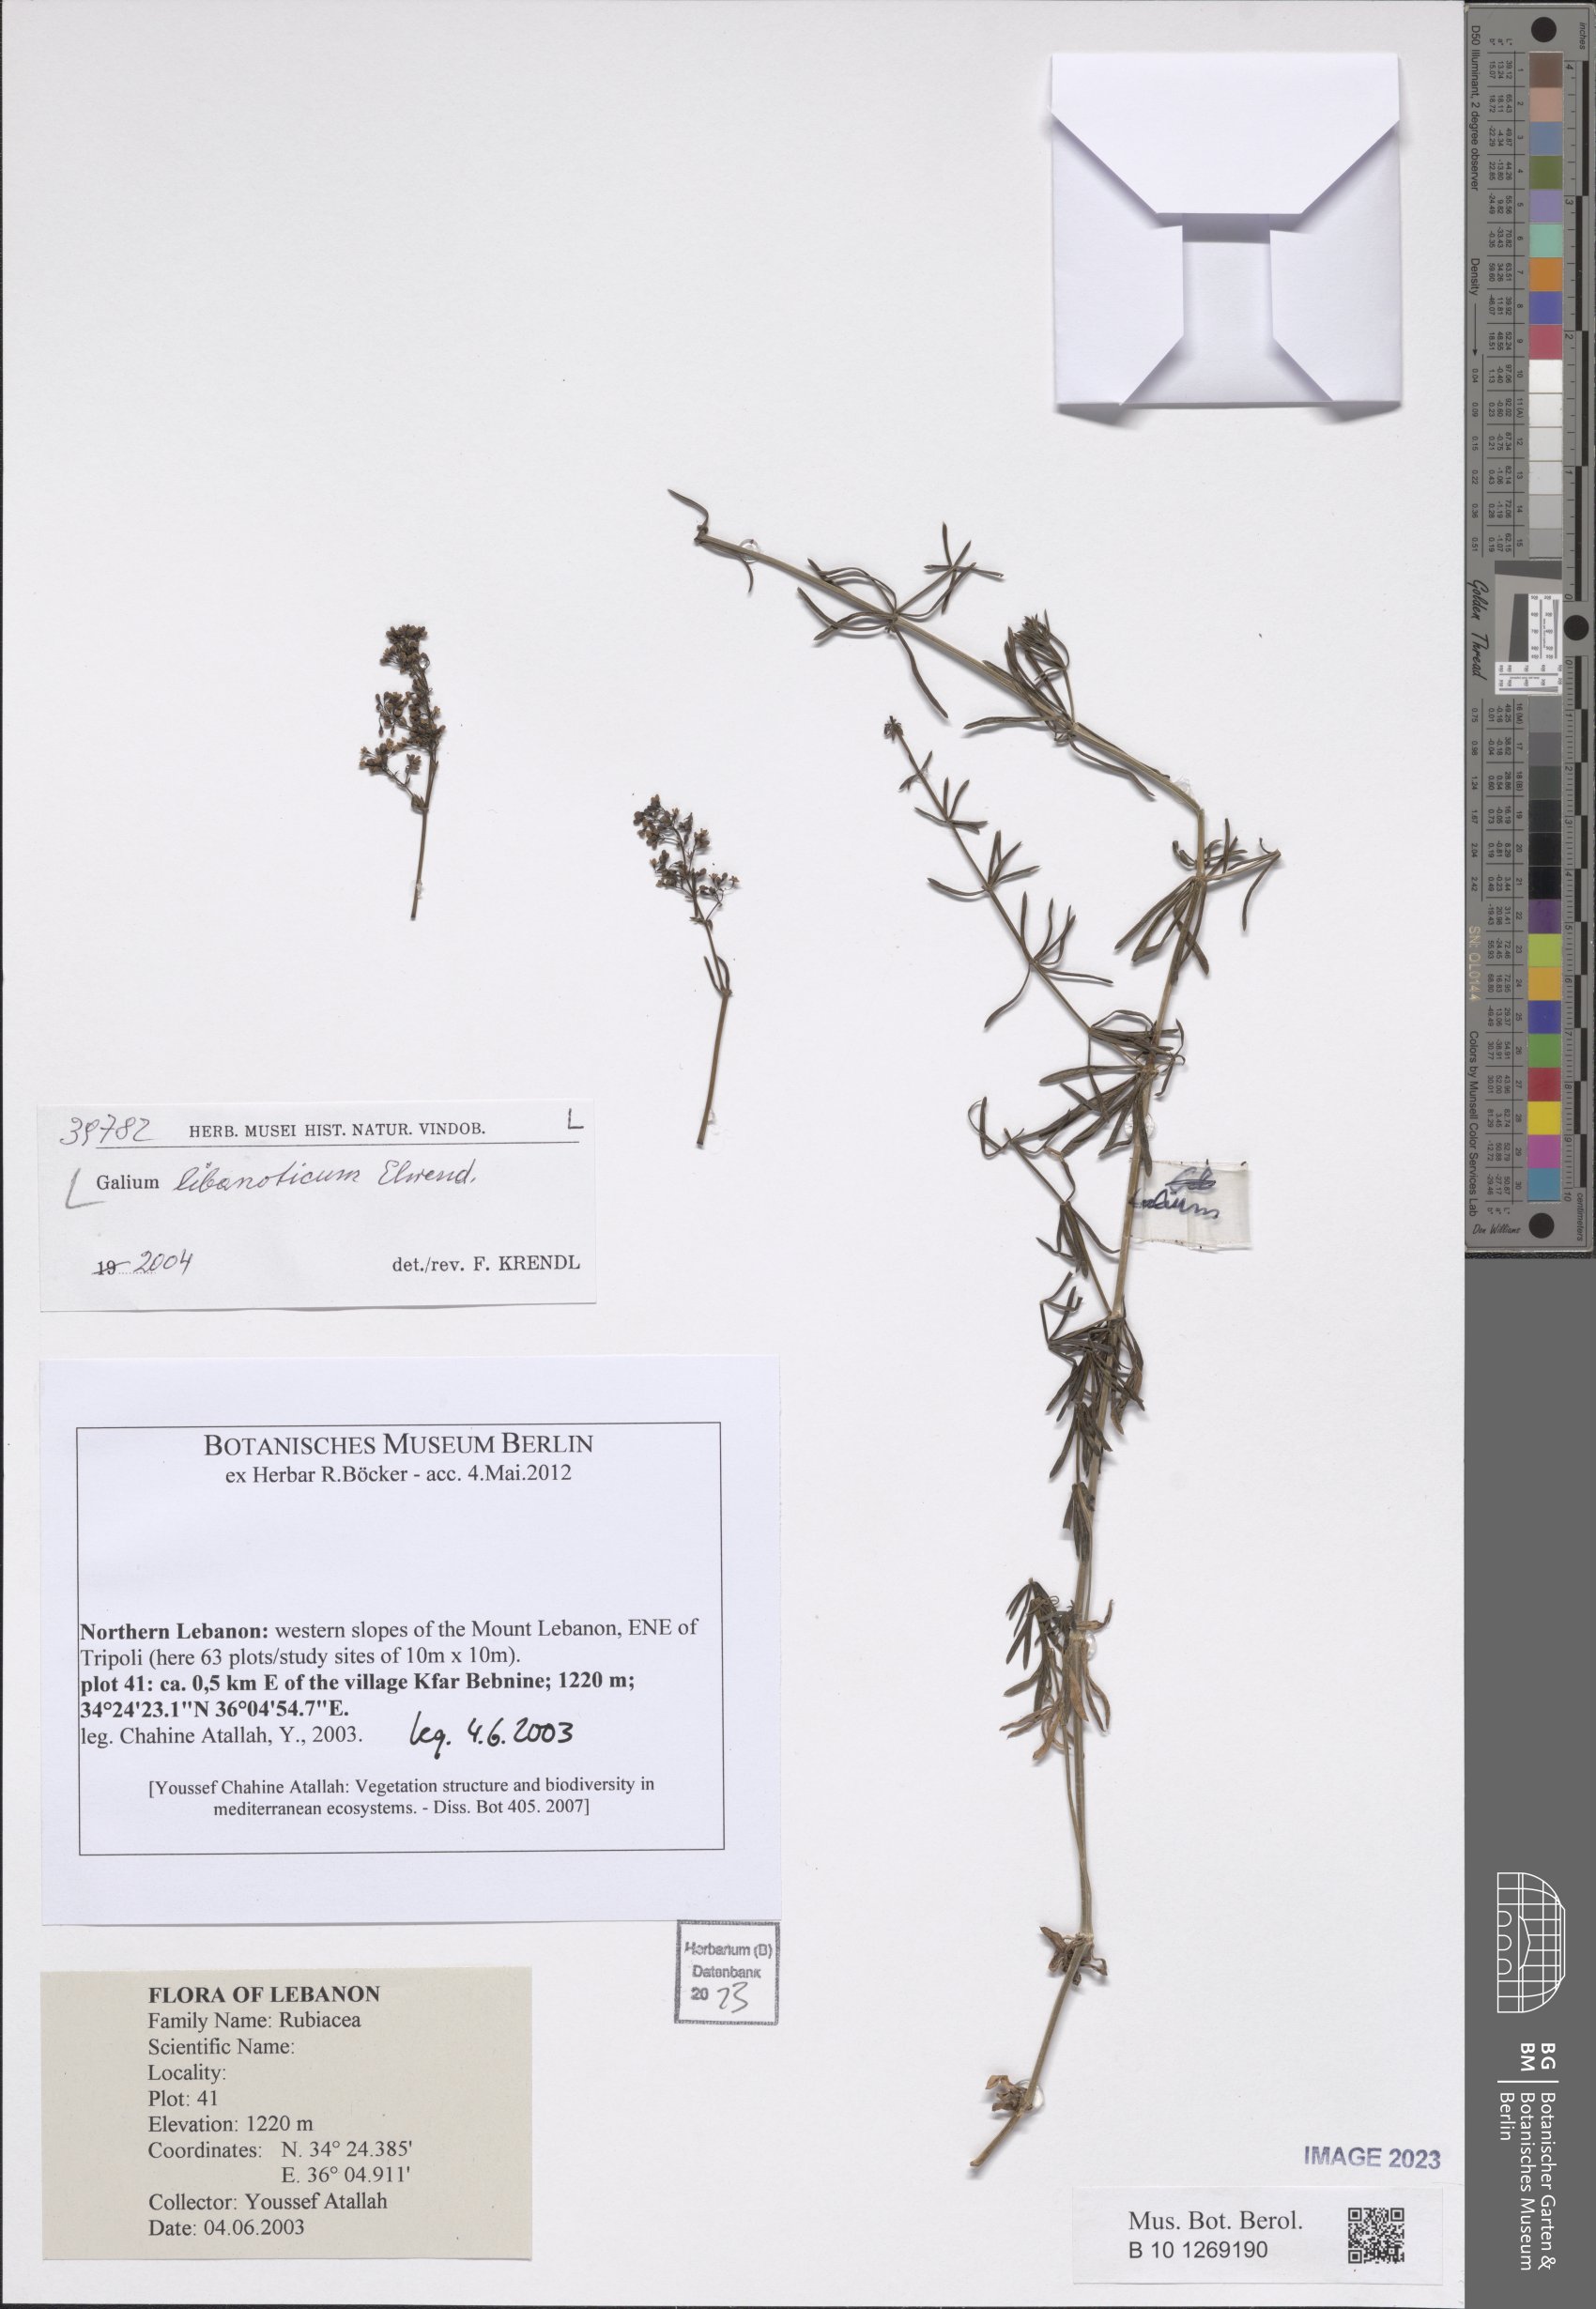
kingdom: Plantae
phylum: Tracheophyta
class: Magnoliopsida
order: Gentianales
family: Rubiaceae
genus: Galium
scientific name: Galium libanoticum
